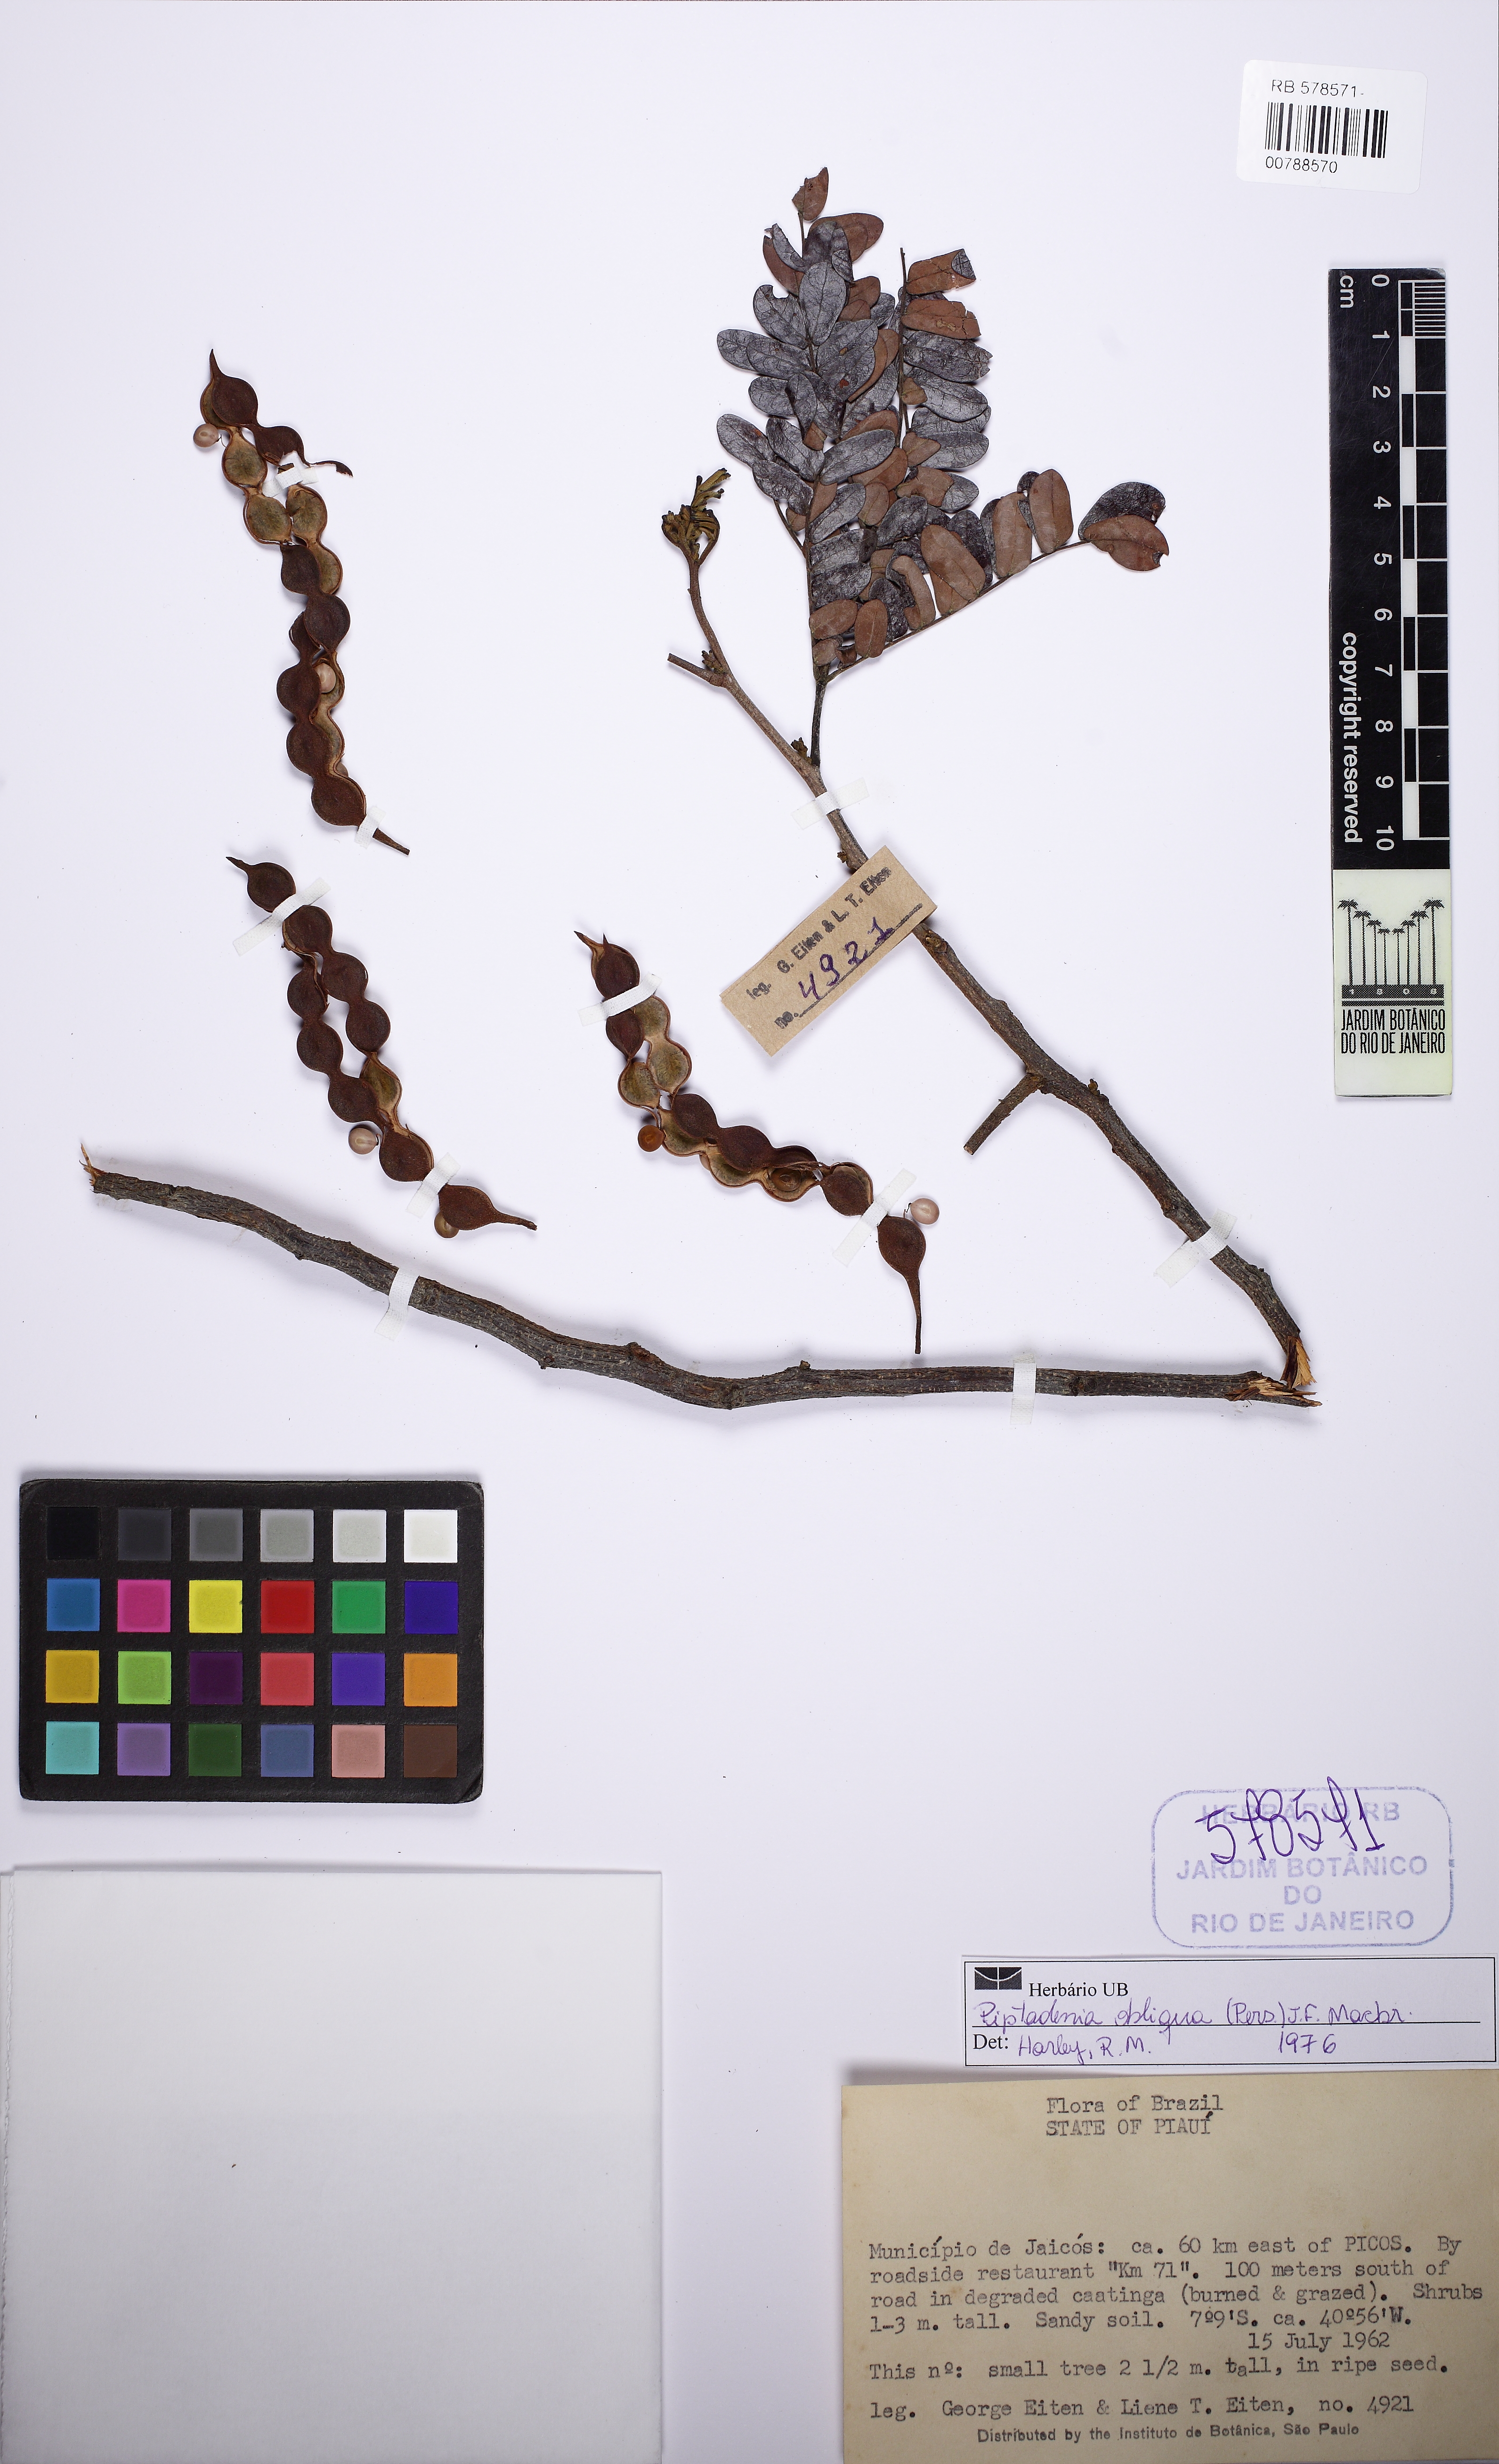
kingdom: Plantae
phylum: Tracheophyta
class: Magnoliopsida
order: Fabales
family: Fabaceae
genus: Pityrocarpa
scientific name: Pityrocarpa obliqua
